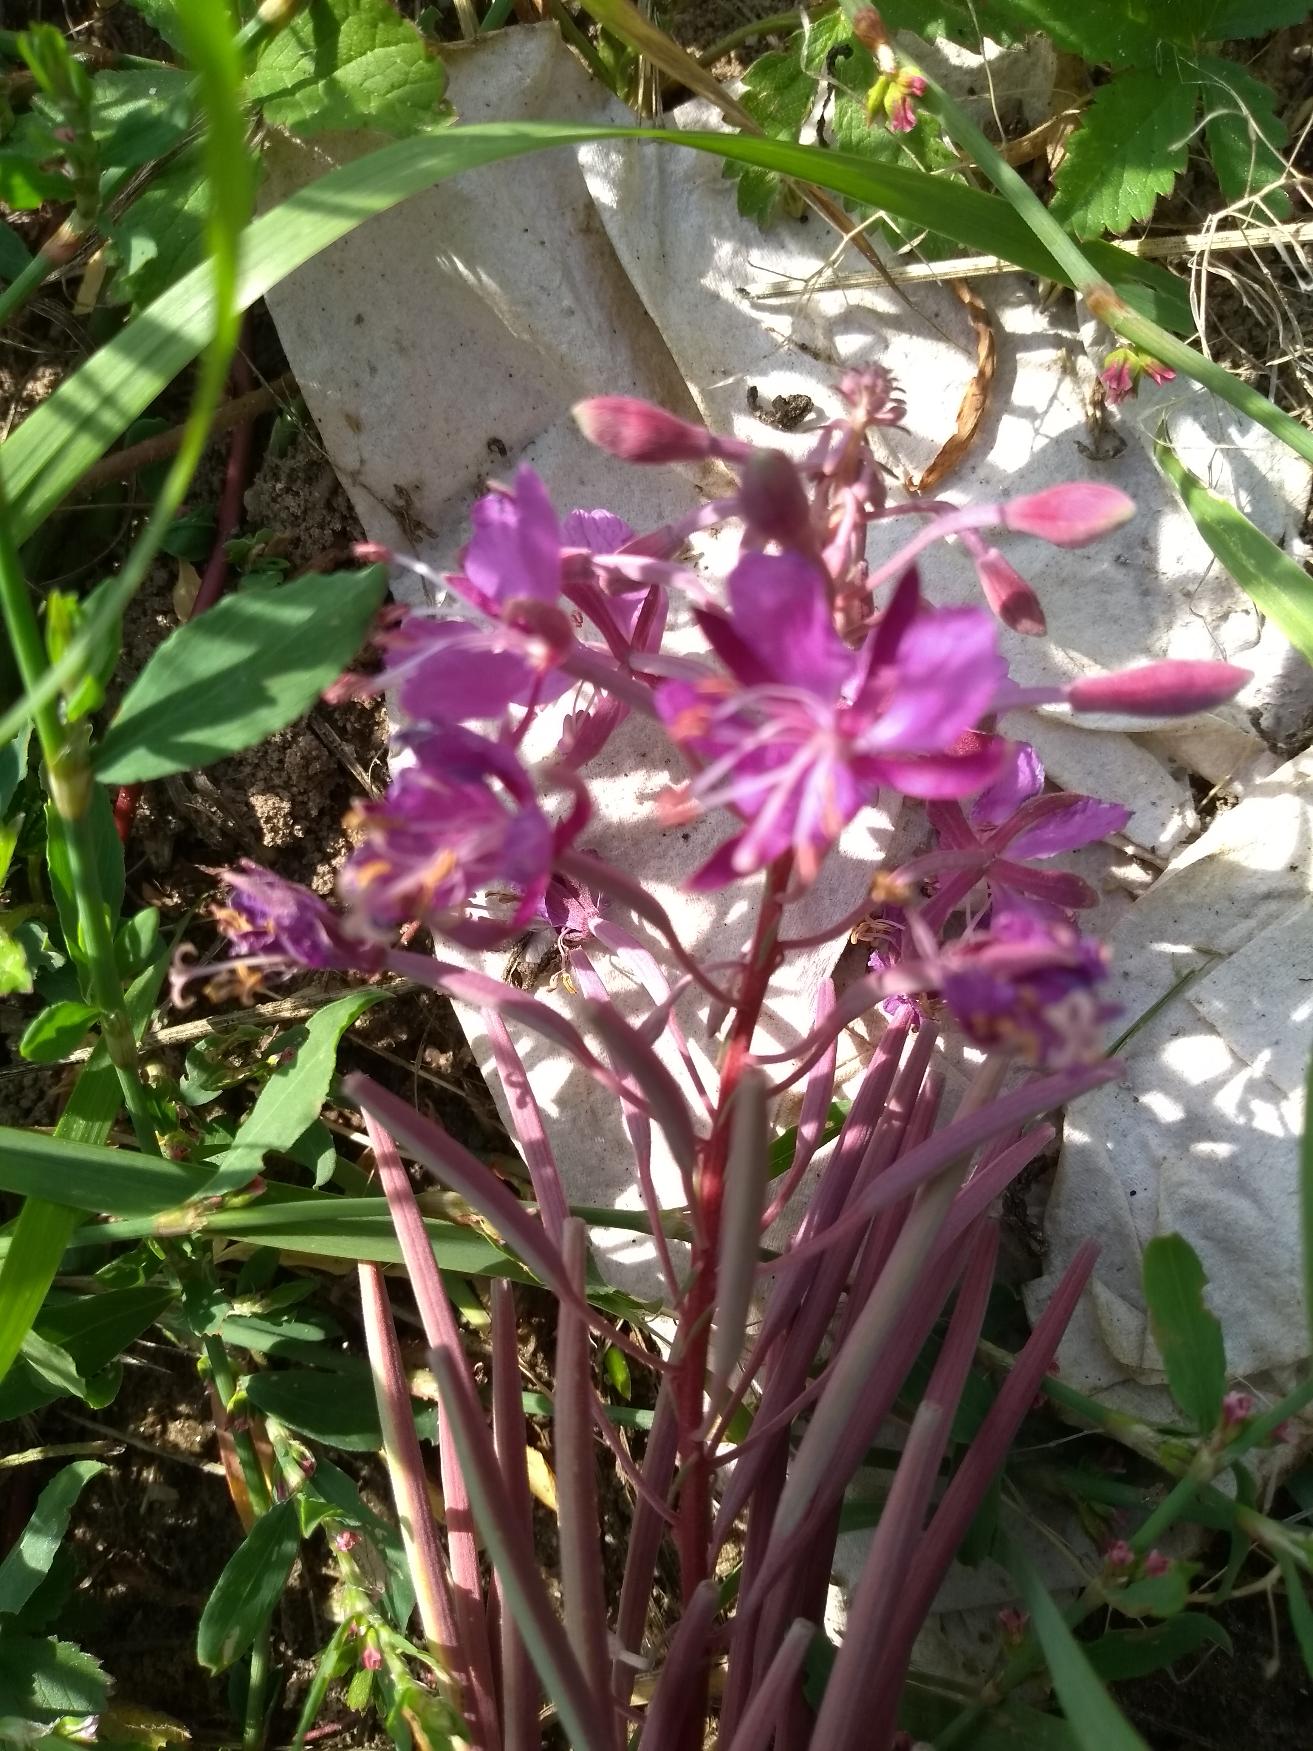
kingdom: Plantae
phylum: Tracheophyta
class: Magnoliopsida
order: Myrtales
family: Onagraceae
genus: Chamaenerion
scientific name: Chamaenerion angustifolium
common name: Gederams
